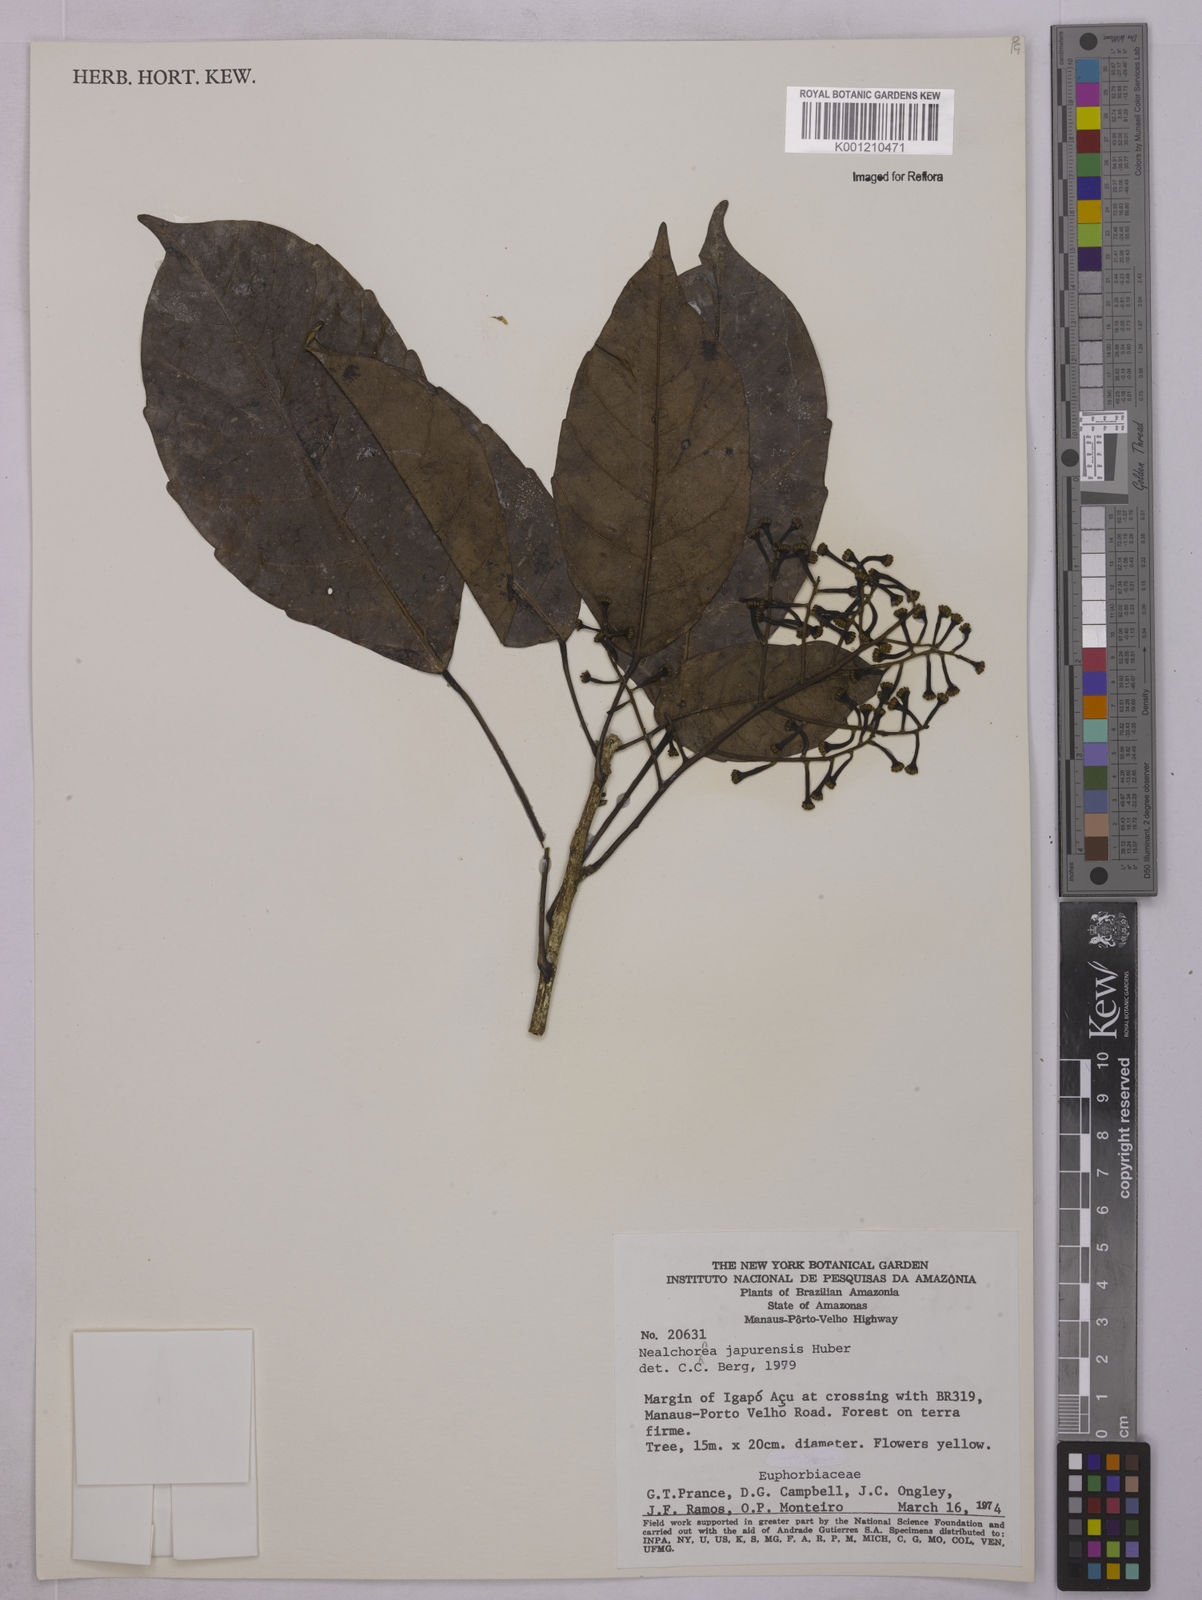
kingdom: Plantae
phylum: Tracheophyta
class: Magnoliopsida
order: Malpighiales
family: Euphorbiaceae
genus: Nealchornea
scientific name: Nealchornea yapurensis
